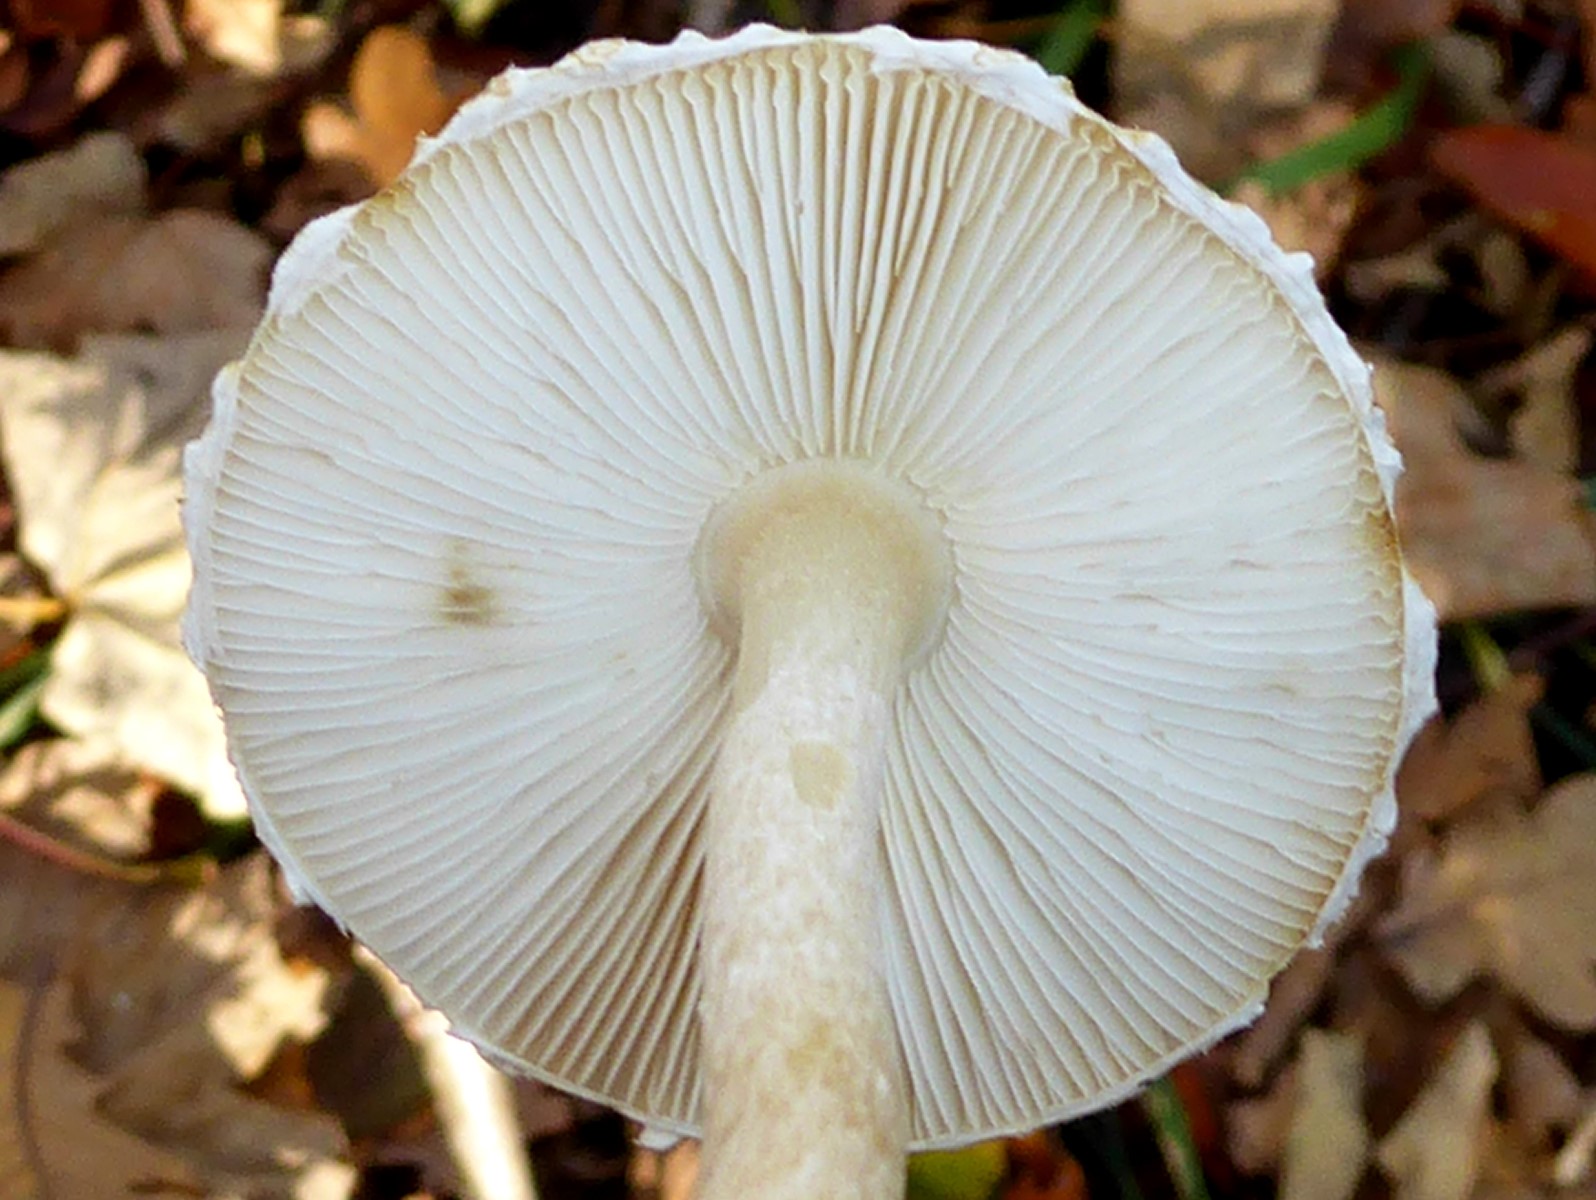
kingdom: Fungi
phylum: Basidiomycota
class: Agaricomycetes
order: Agaricales
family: Agaricaceae
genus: Lepiota
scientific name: Lepiota clypeolaria
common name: flosset parasolhat
